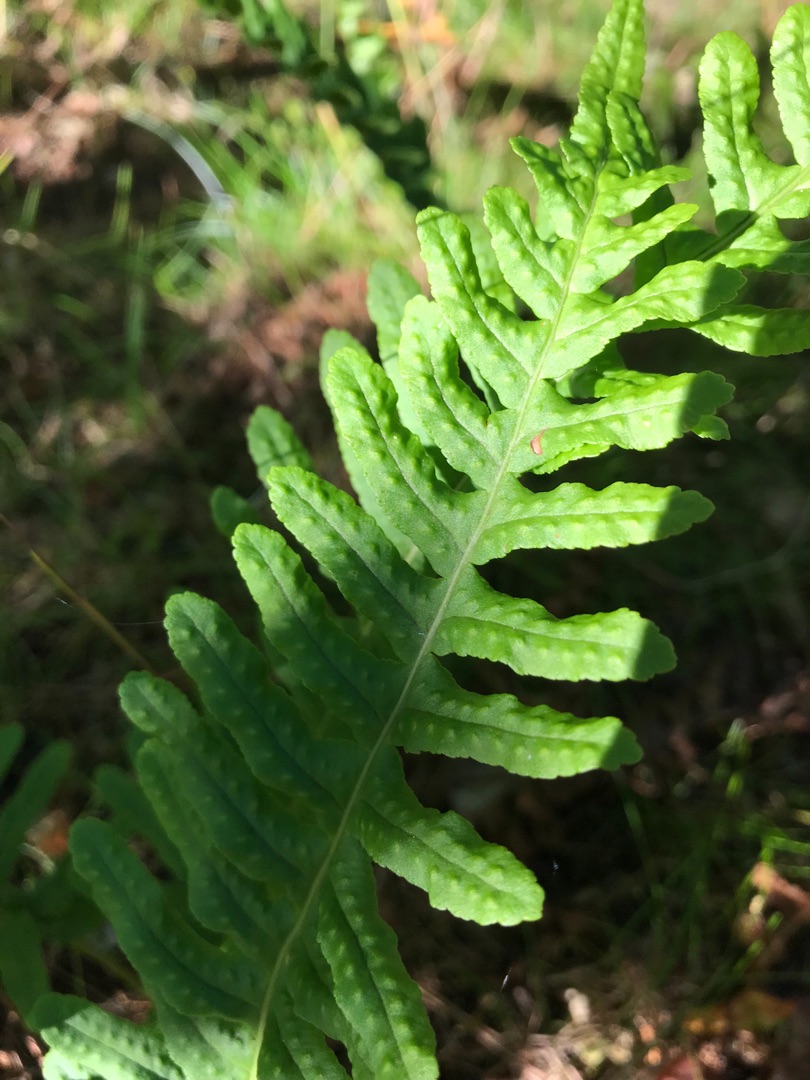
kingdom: Plantae
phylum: Tracheophyta
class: Polypodiopsida
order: Polypodiales
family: Polypodiaceae
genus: Polypodium
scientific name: Polypodium vulgare
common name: Almindelig engelsød
